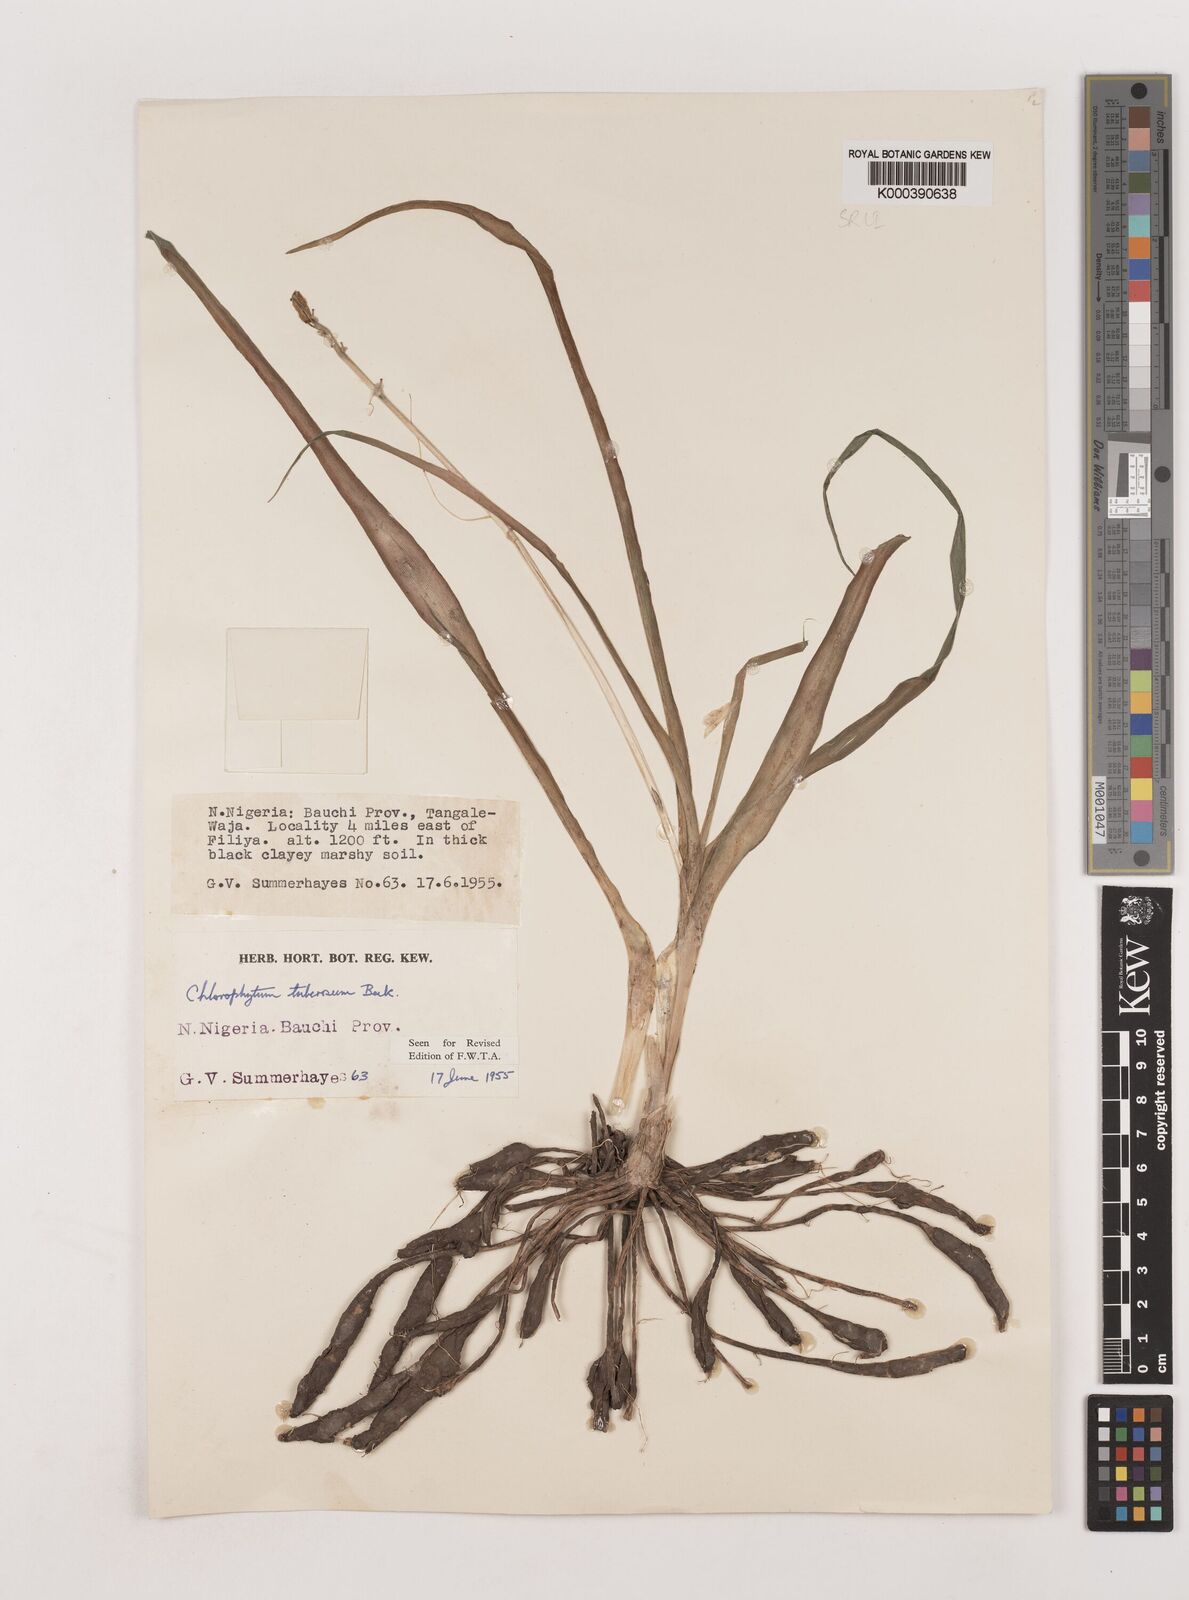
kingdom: Plantae
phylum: Tracheophyta
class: Liliopsida
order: Asparagales
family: Asparagaceae
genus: Chlorophytum
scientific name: Chlorophytum tuberosum
